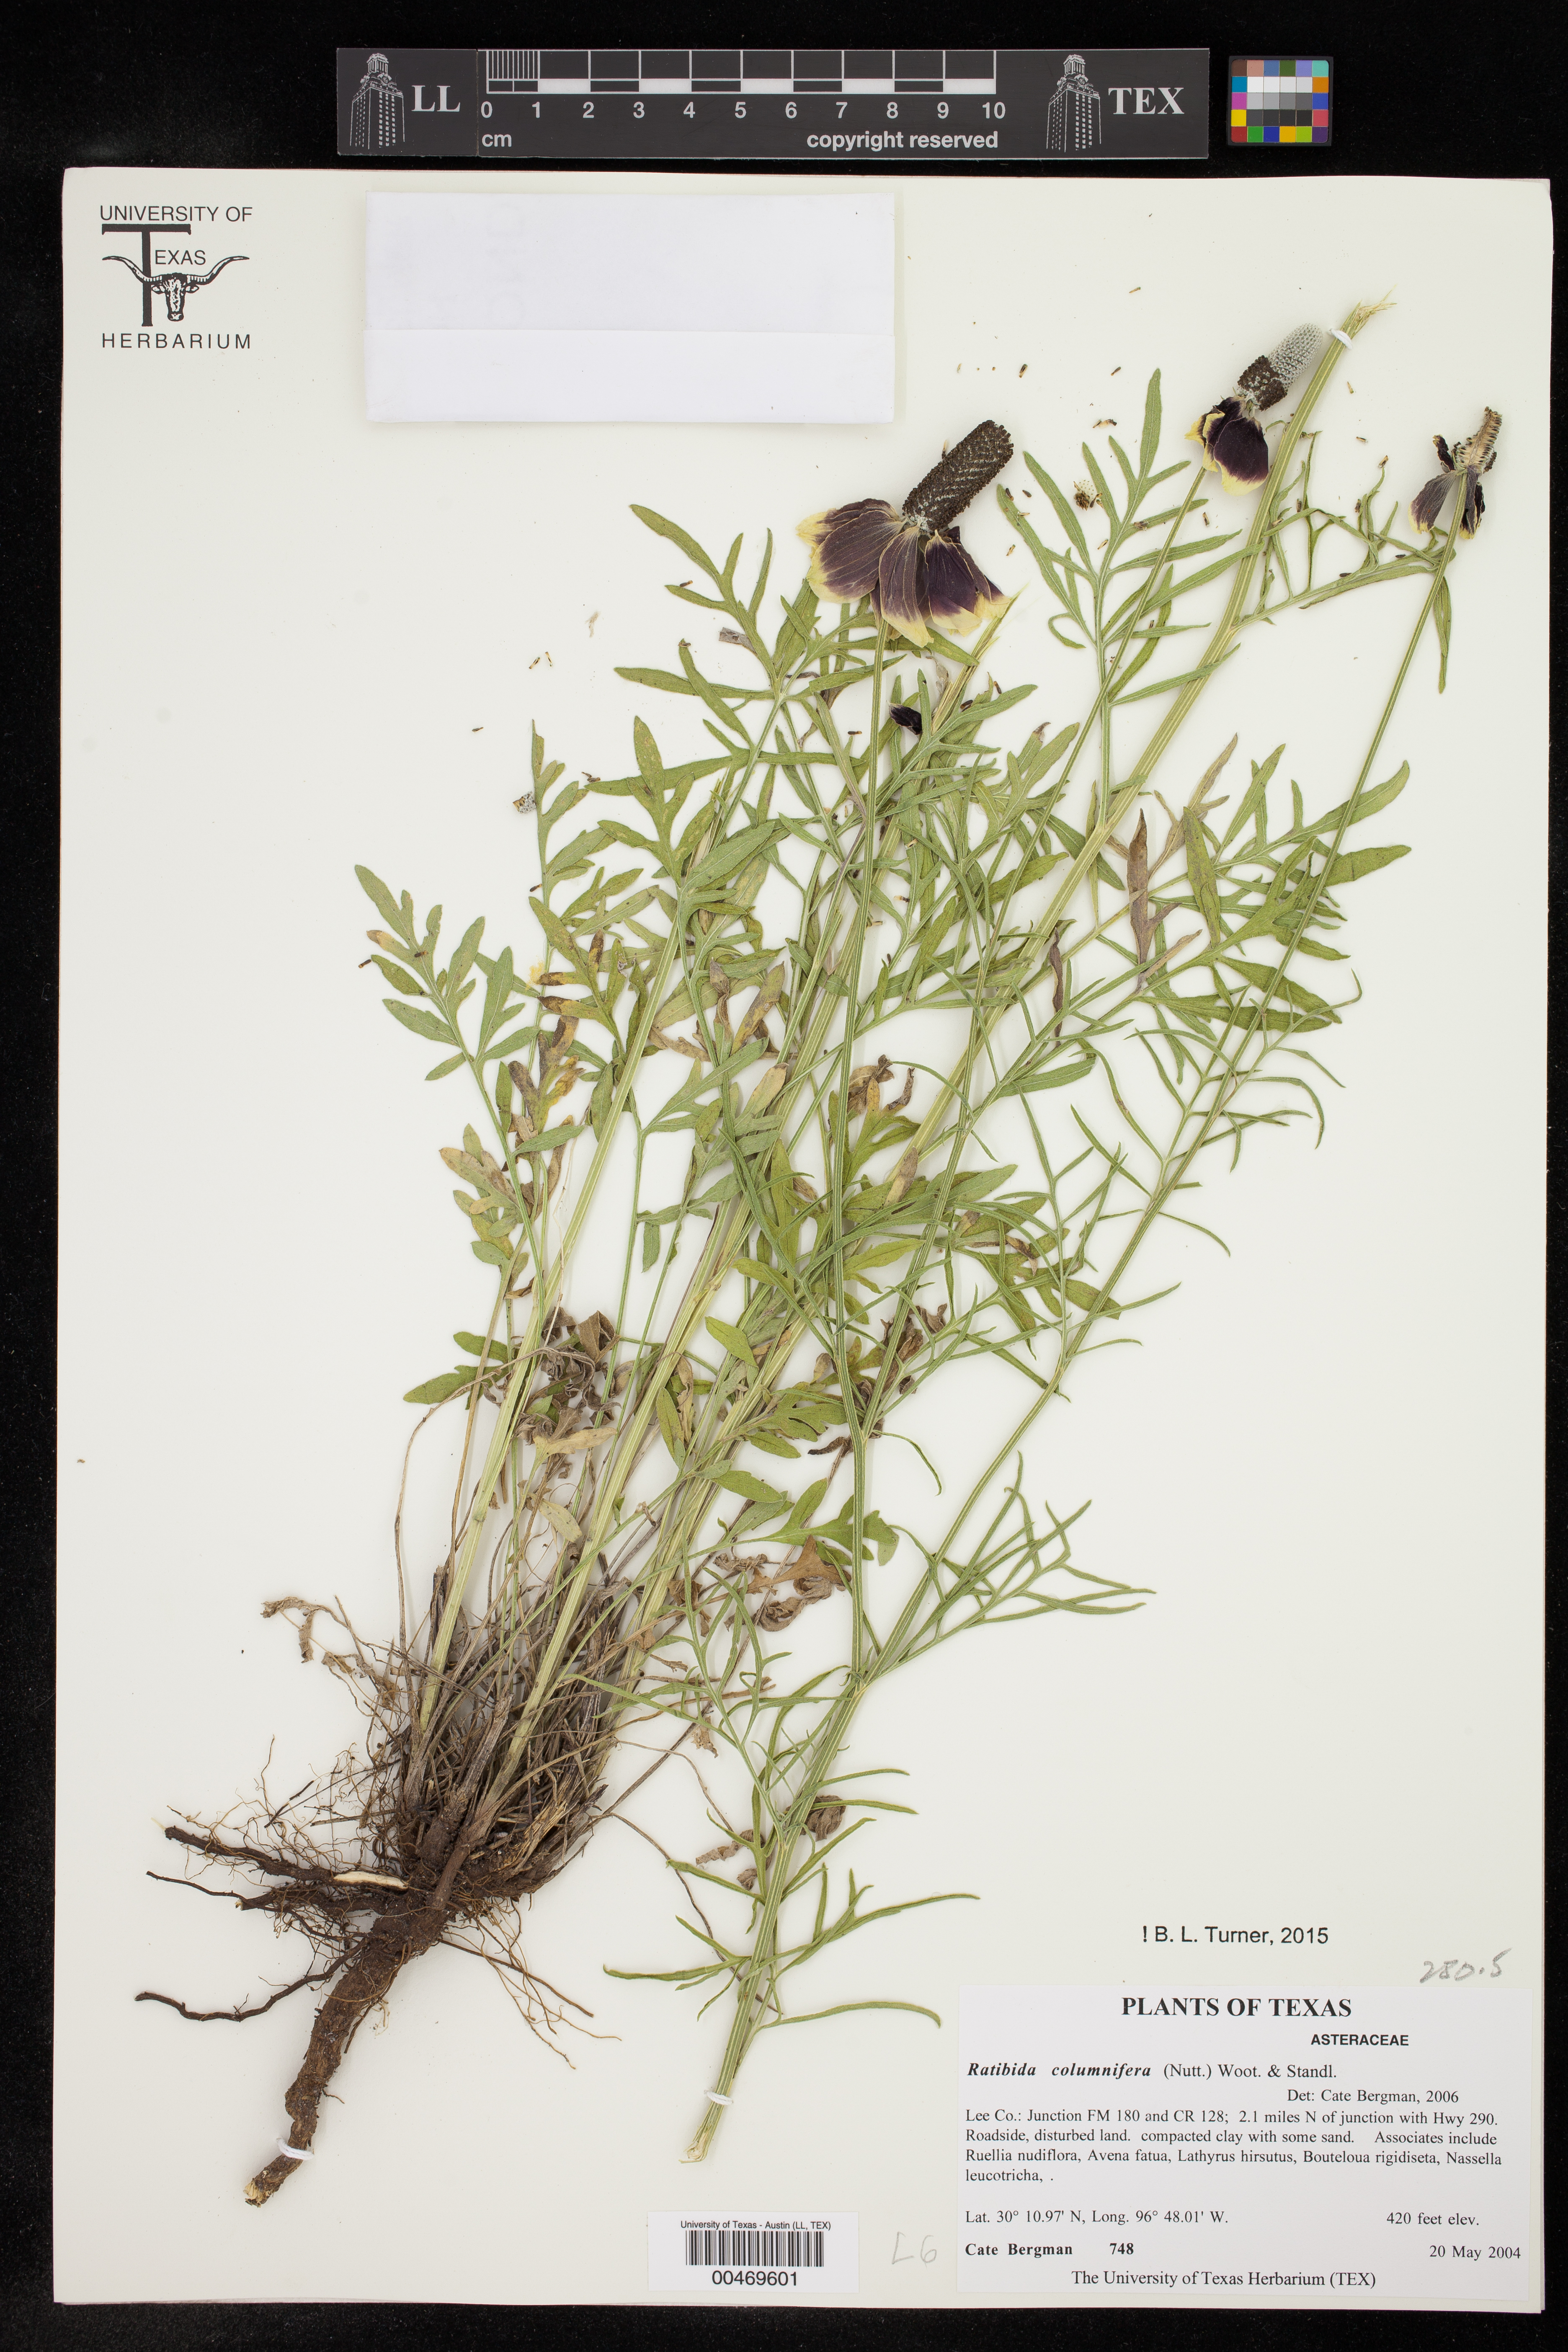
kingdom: Plantae
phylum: Tracheophyta
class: Magnoliopsida
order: Asterales
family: Asteraceae
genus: Ratibida
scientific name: Ratibida columnifera
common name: Prairie coneflower
